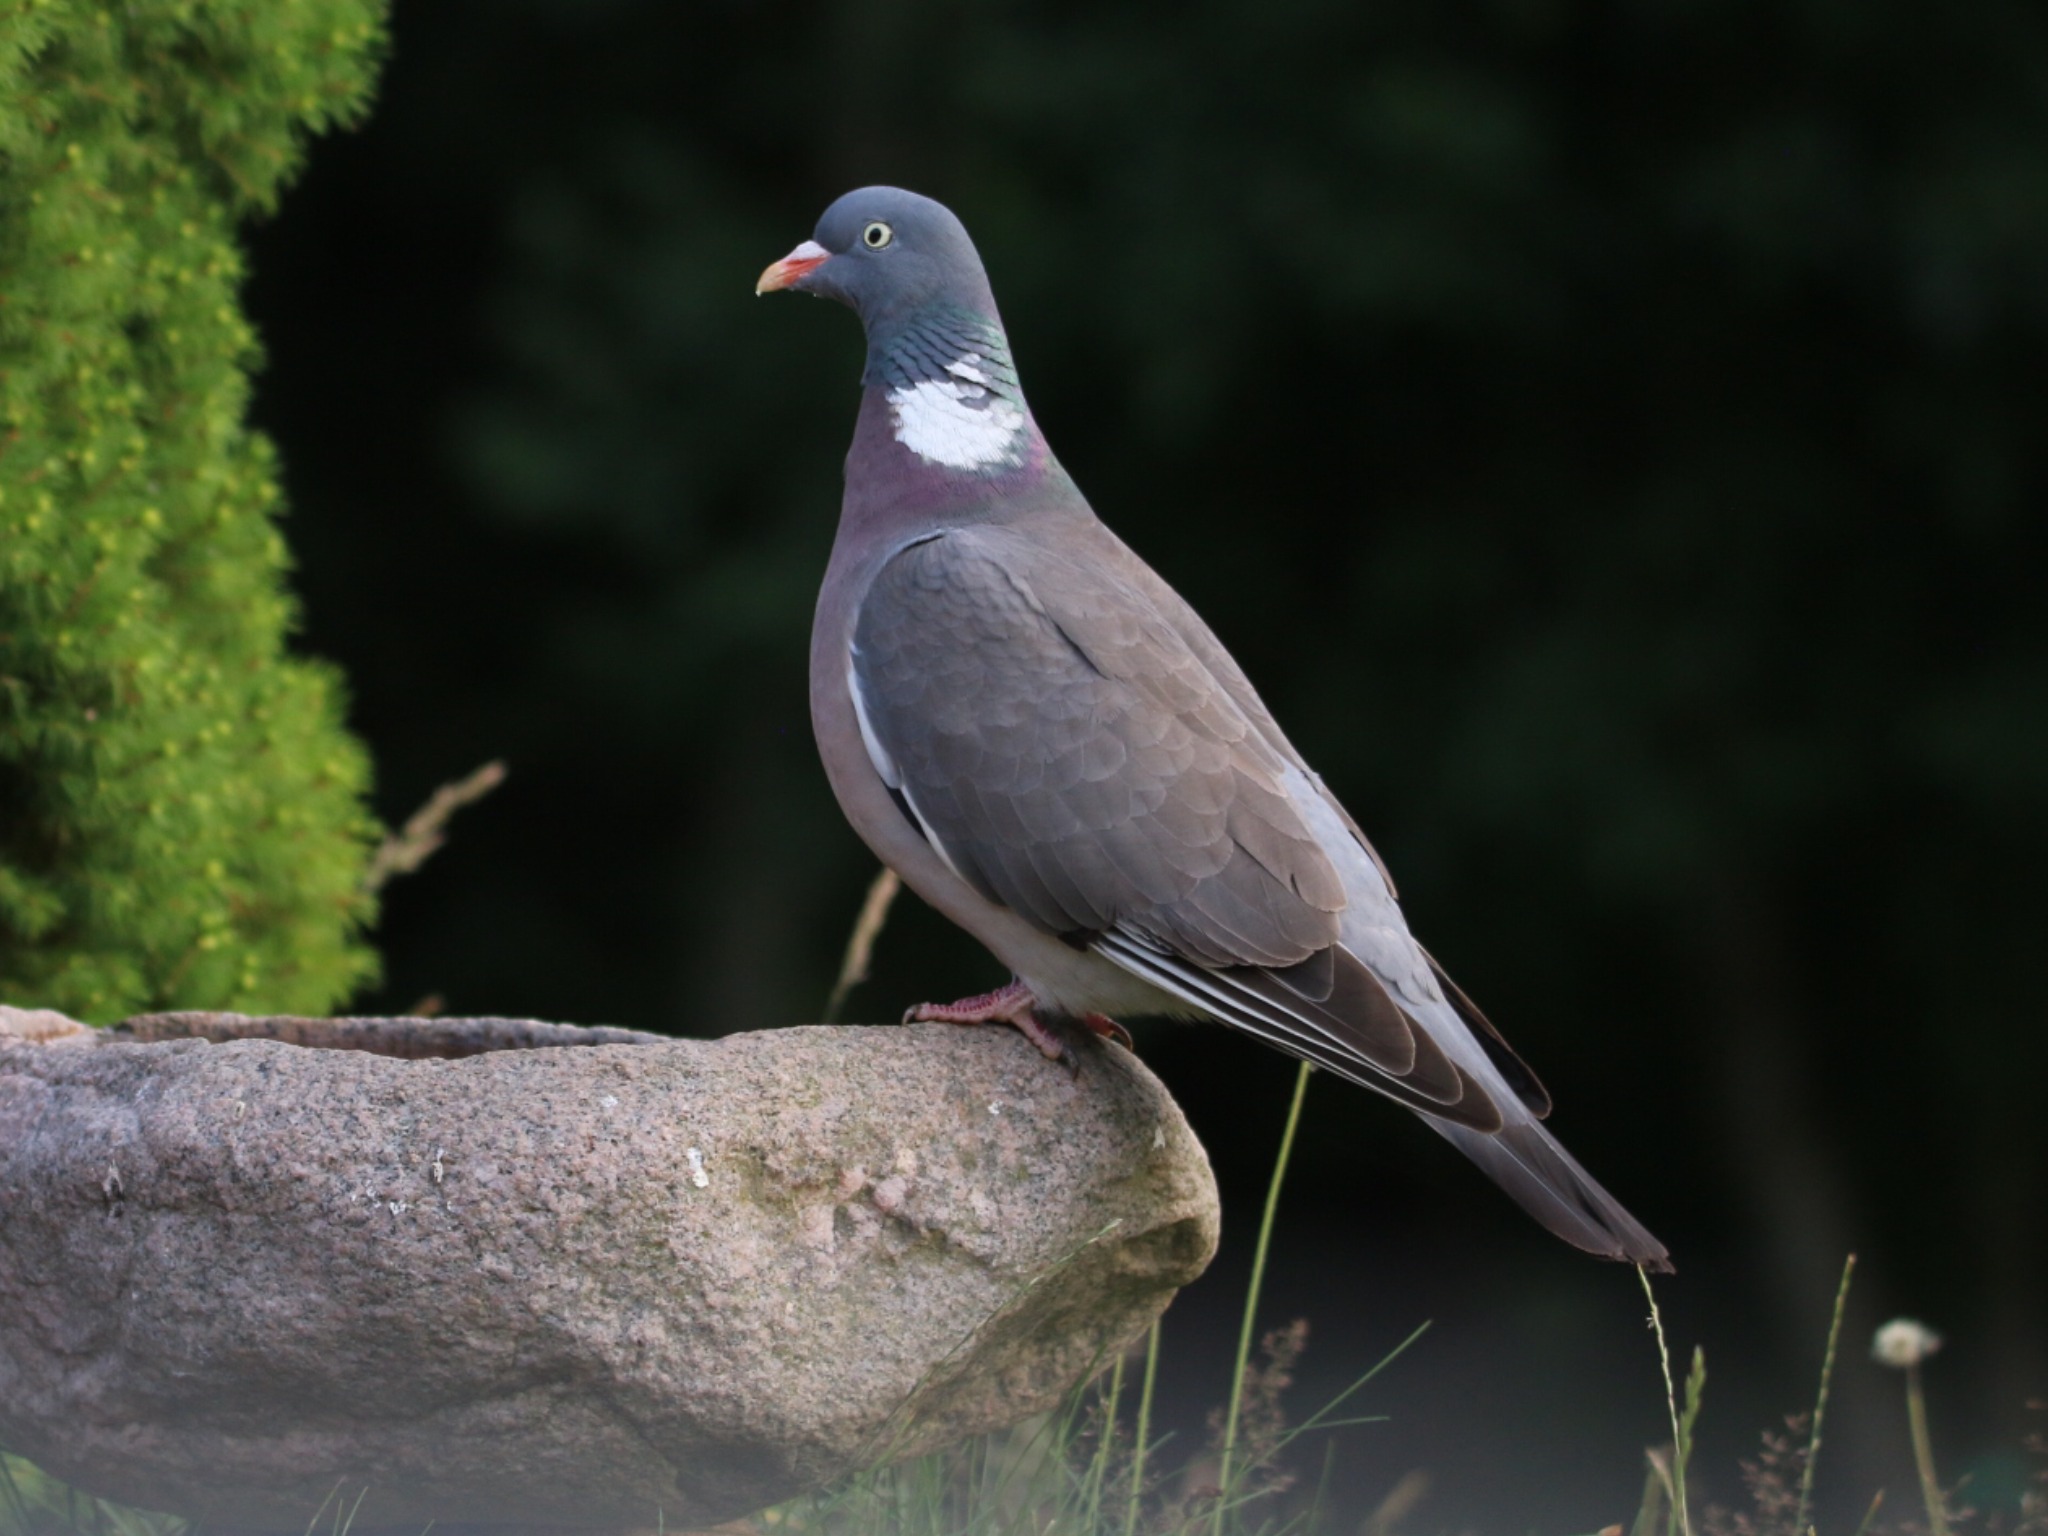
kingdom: Animalia
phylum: Chordata
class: Aves
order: Columbiformes
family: Columbidae
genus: Columba
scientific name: Columba palumbus
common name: Ringdue
